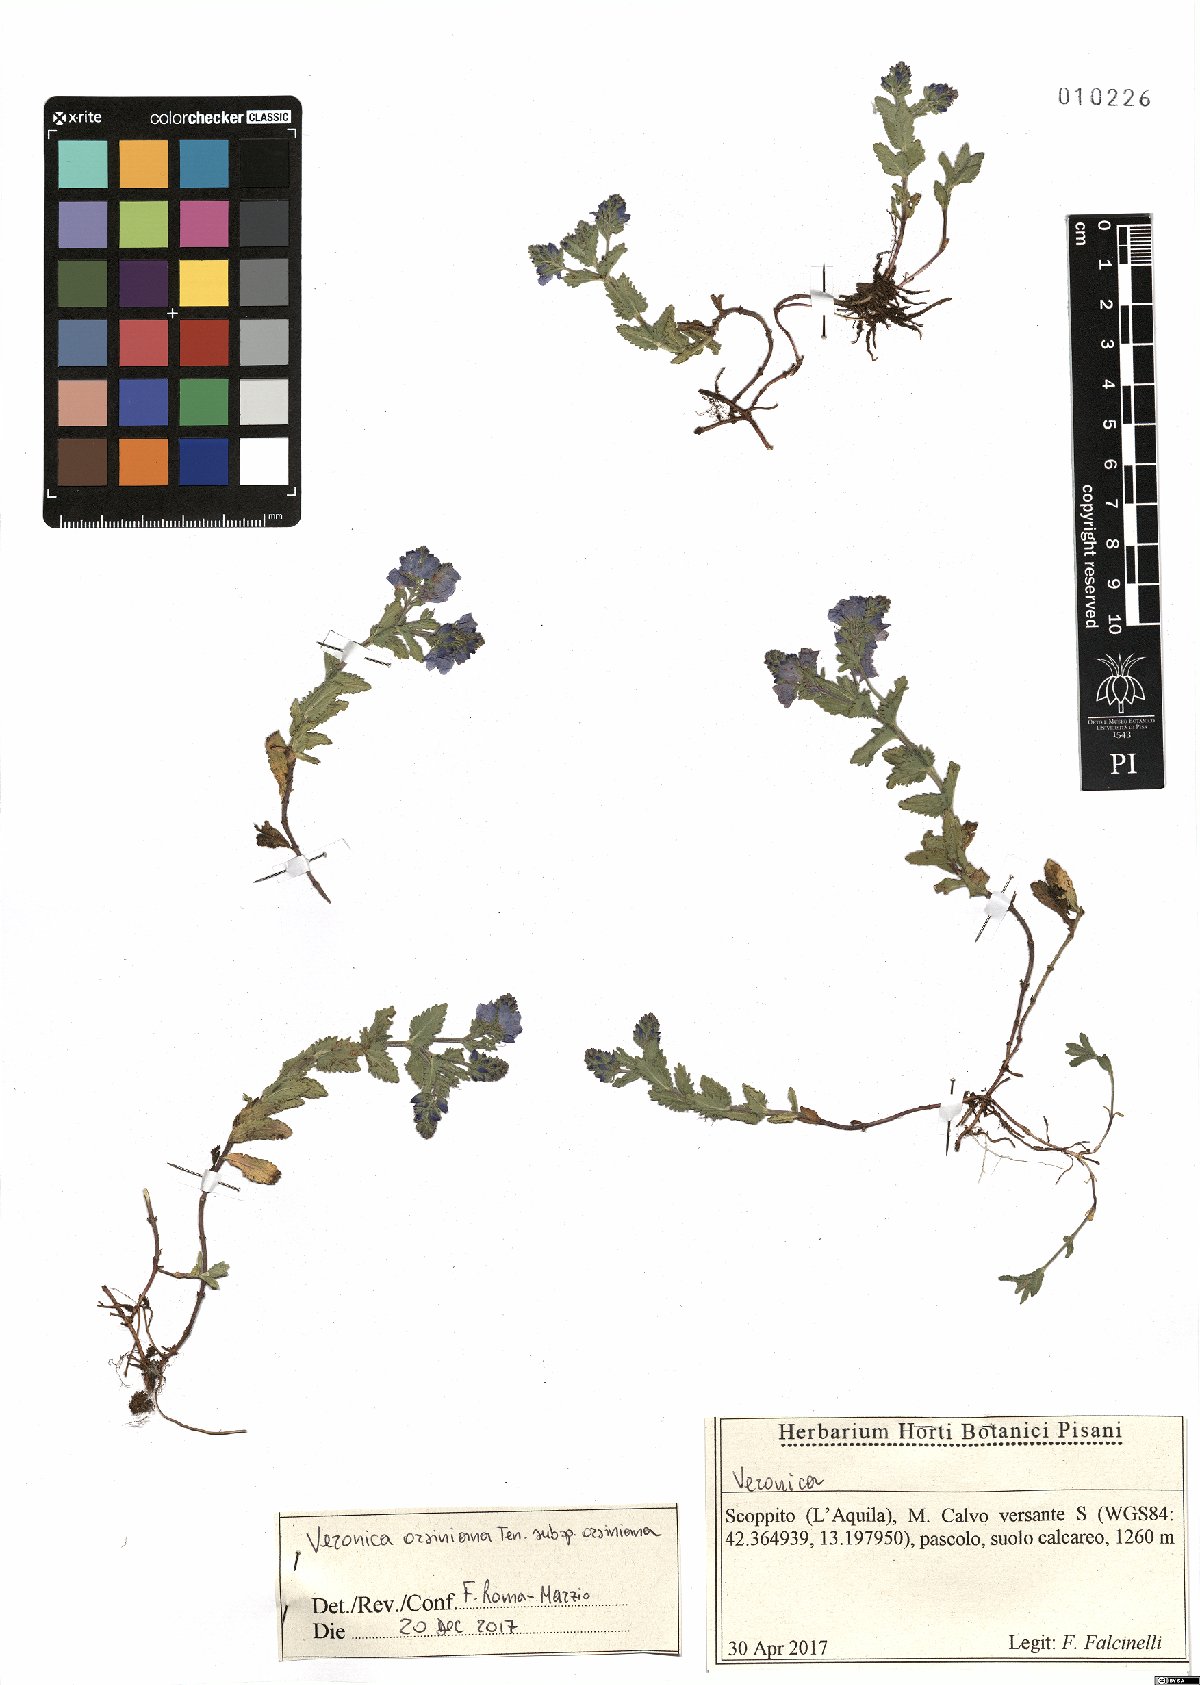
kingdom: Plantae
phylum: Tracheophyta
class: Magnoliopsida
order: Lamiales
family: Plantaginaceae
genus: Veronica
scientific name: Veronica orsiniana
